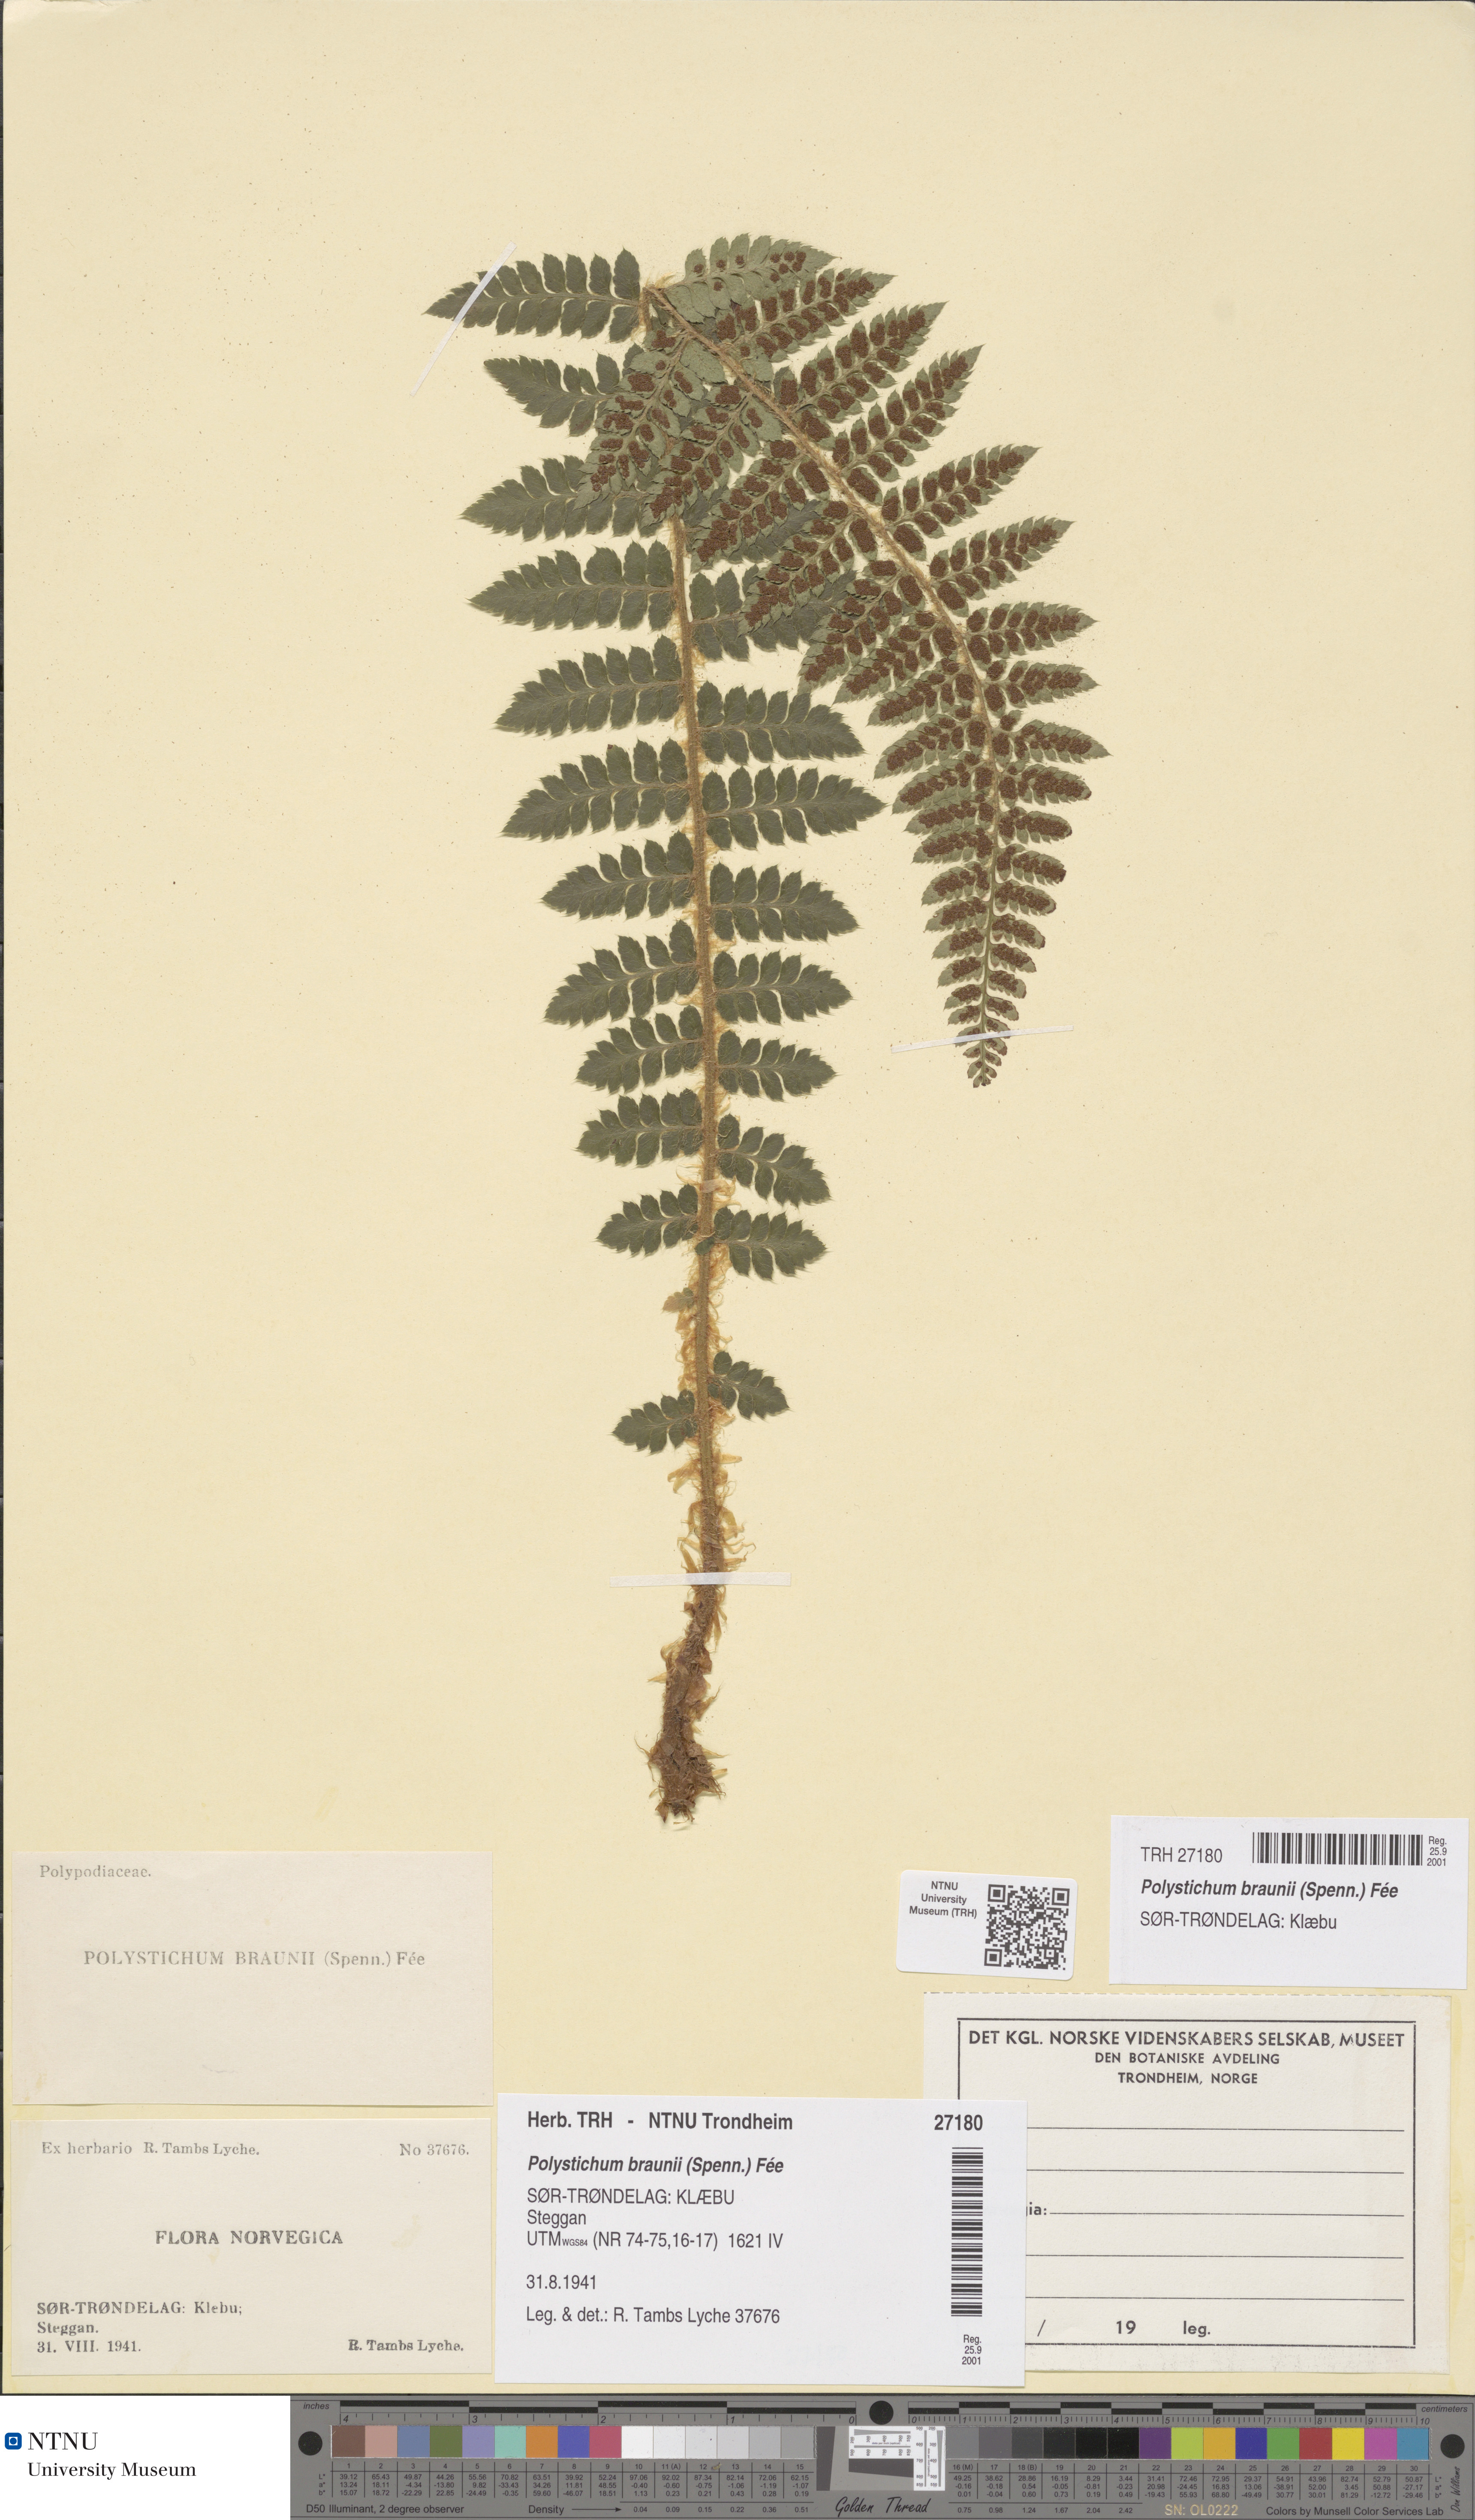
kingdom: Plantae
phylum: Tracheophyta
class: Polypodiopsida
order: Polypodiales
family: Dryopteridaceae
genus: Polystichum
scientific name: Polystichum braunii
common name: Braun's holly fern
